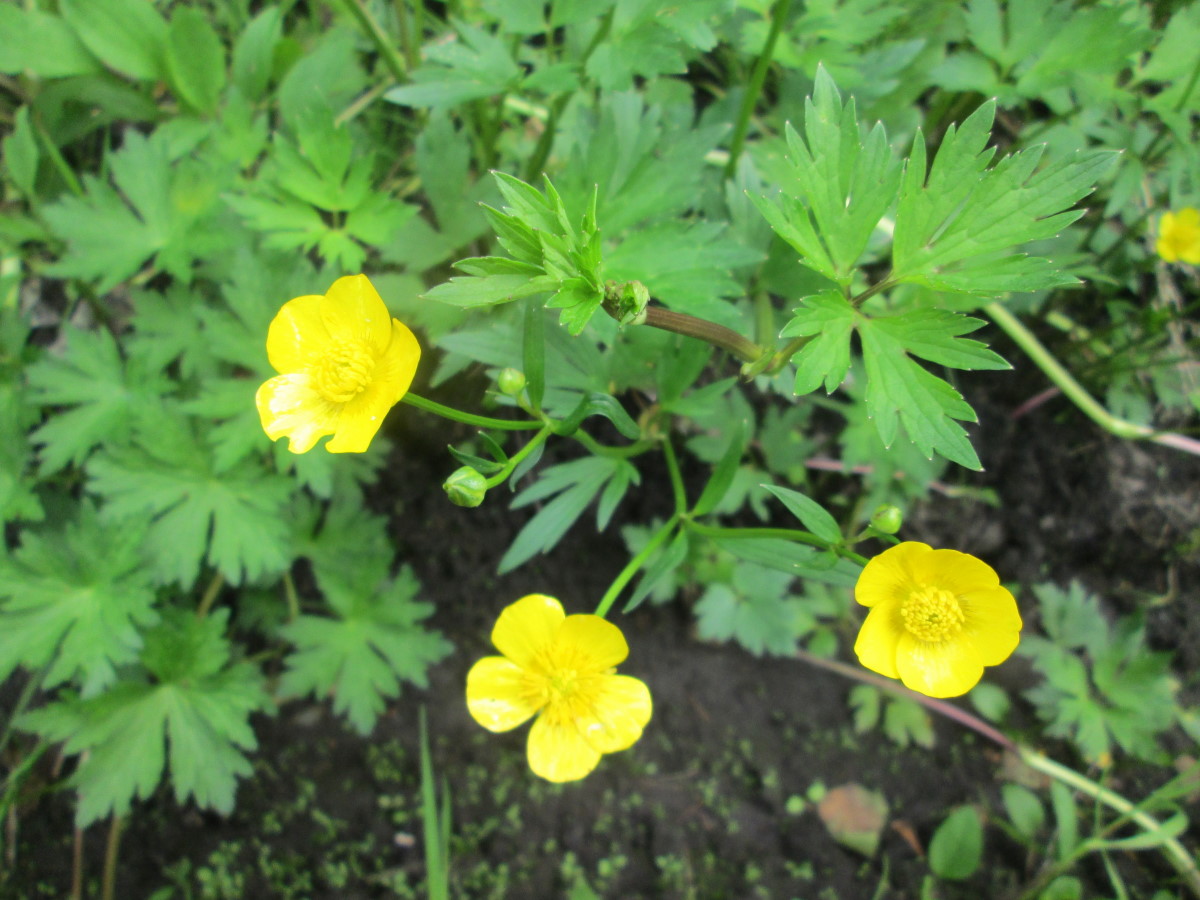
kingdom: Plantae
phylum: Tracheophyta
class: Magnoliopsida
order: Ranunculales
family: Ranunculaceae
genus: Ranunculus
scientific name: Ranunculus repens
